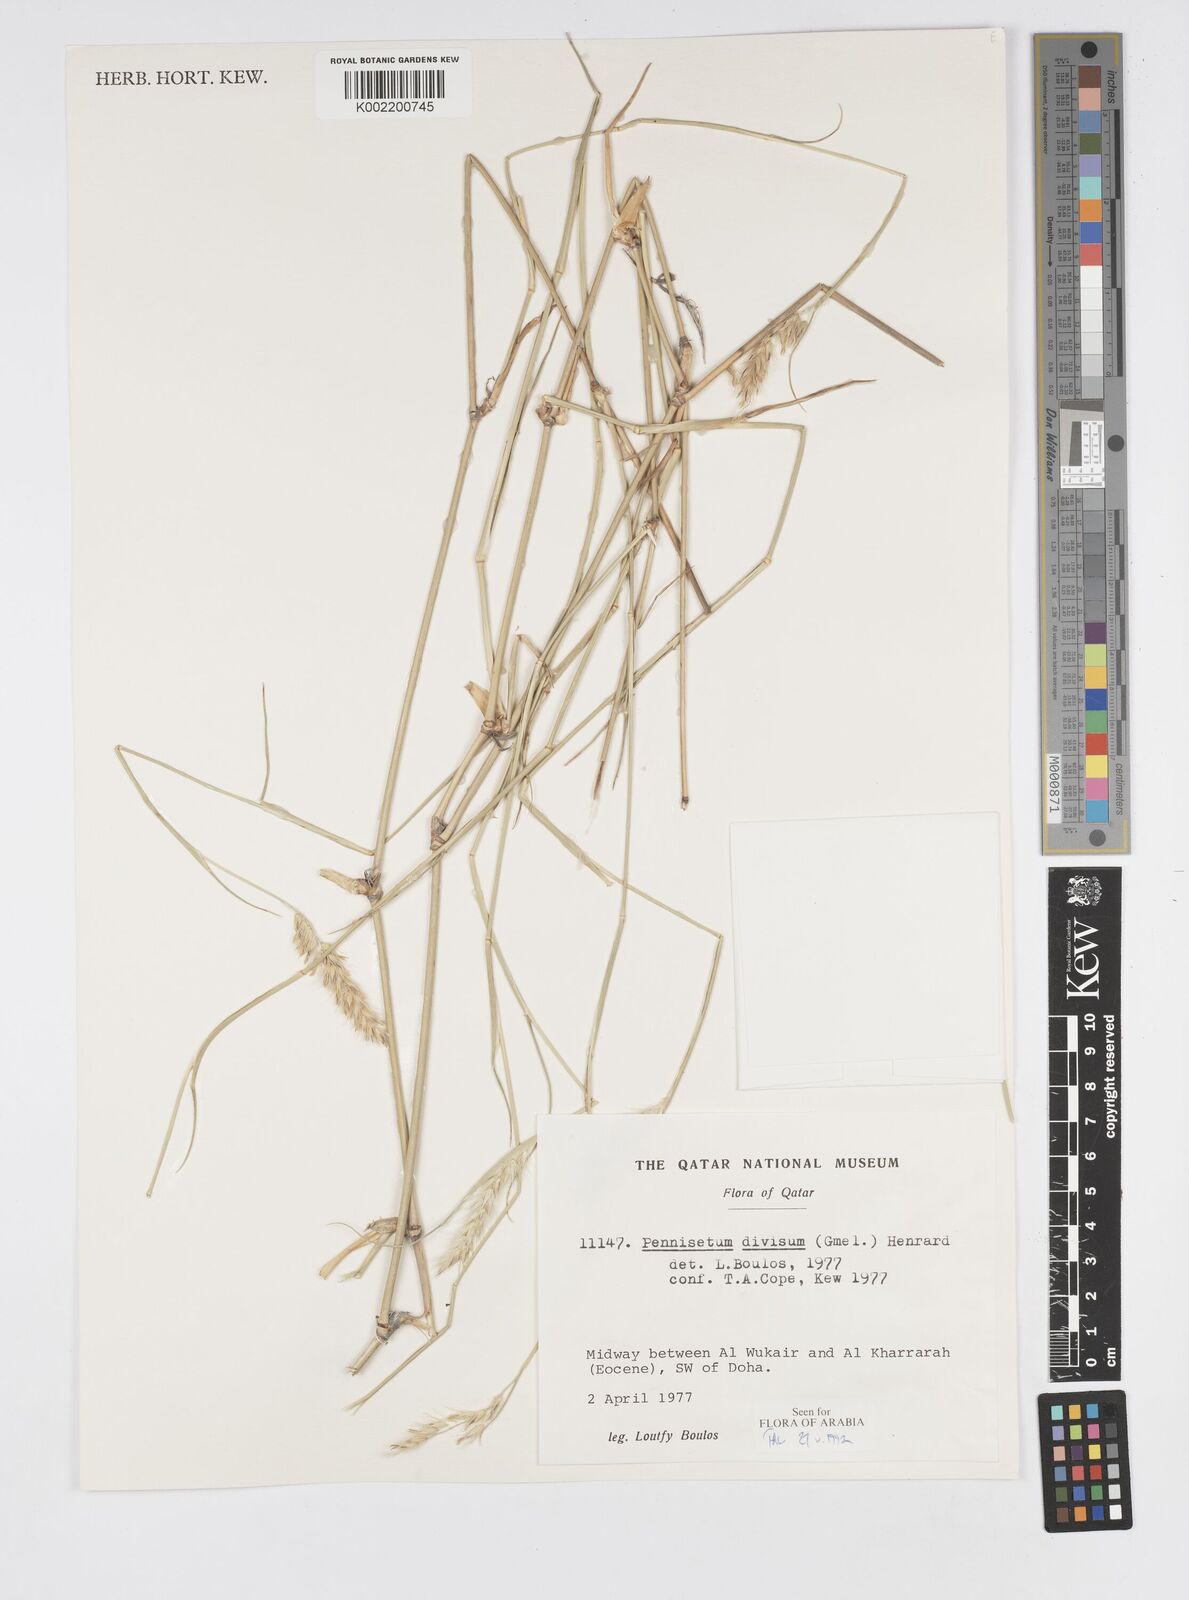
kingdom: Plantae
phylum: Tracheophyta
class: Liliopsida
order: Poales
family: Poaceae
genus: Cenchrus
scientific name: Cenchrus divisus
